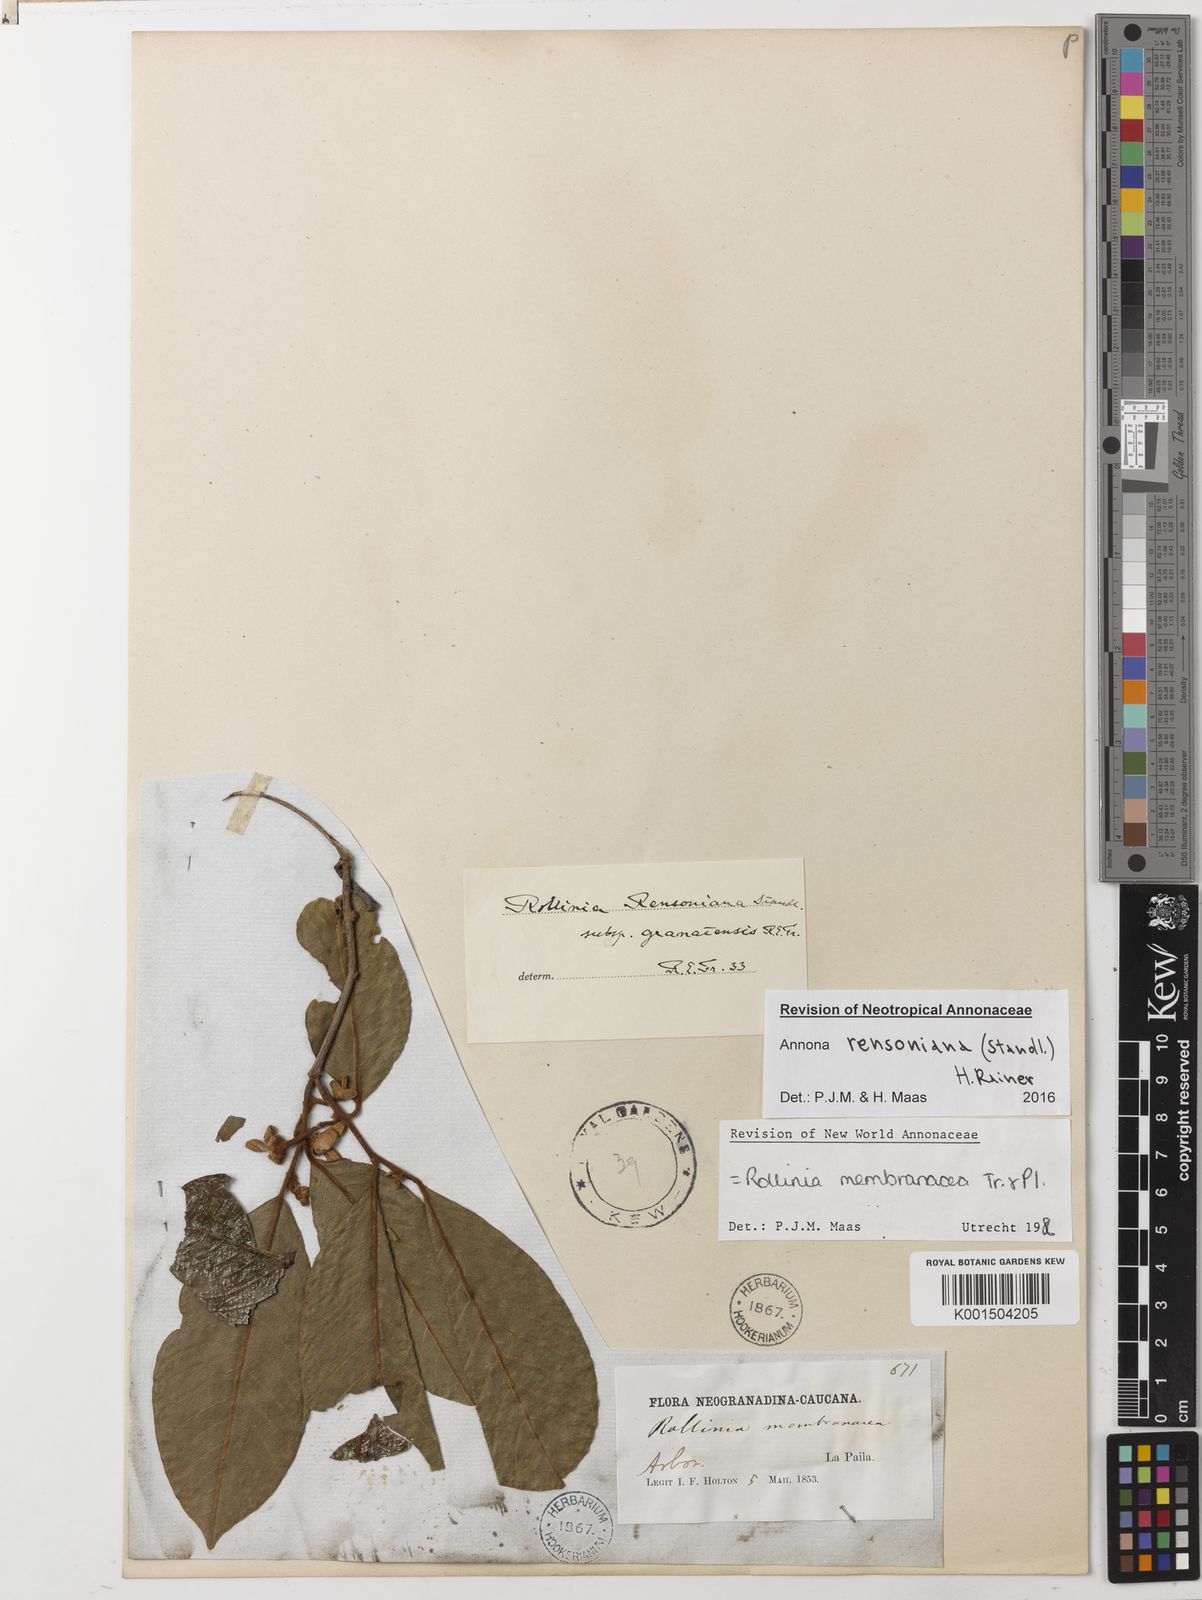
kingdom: Plantae
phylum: Tracheophyta
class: Magnoliopsida
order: Magnoliales
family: Annonaceae
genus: Annona
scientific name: Annona rensoniana
